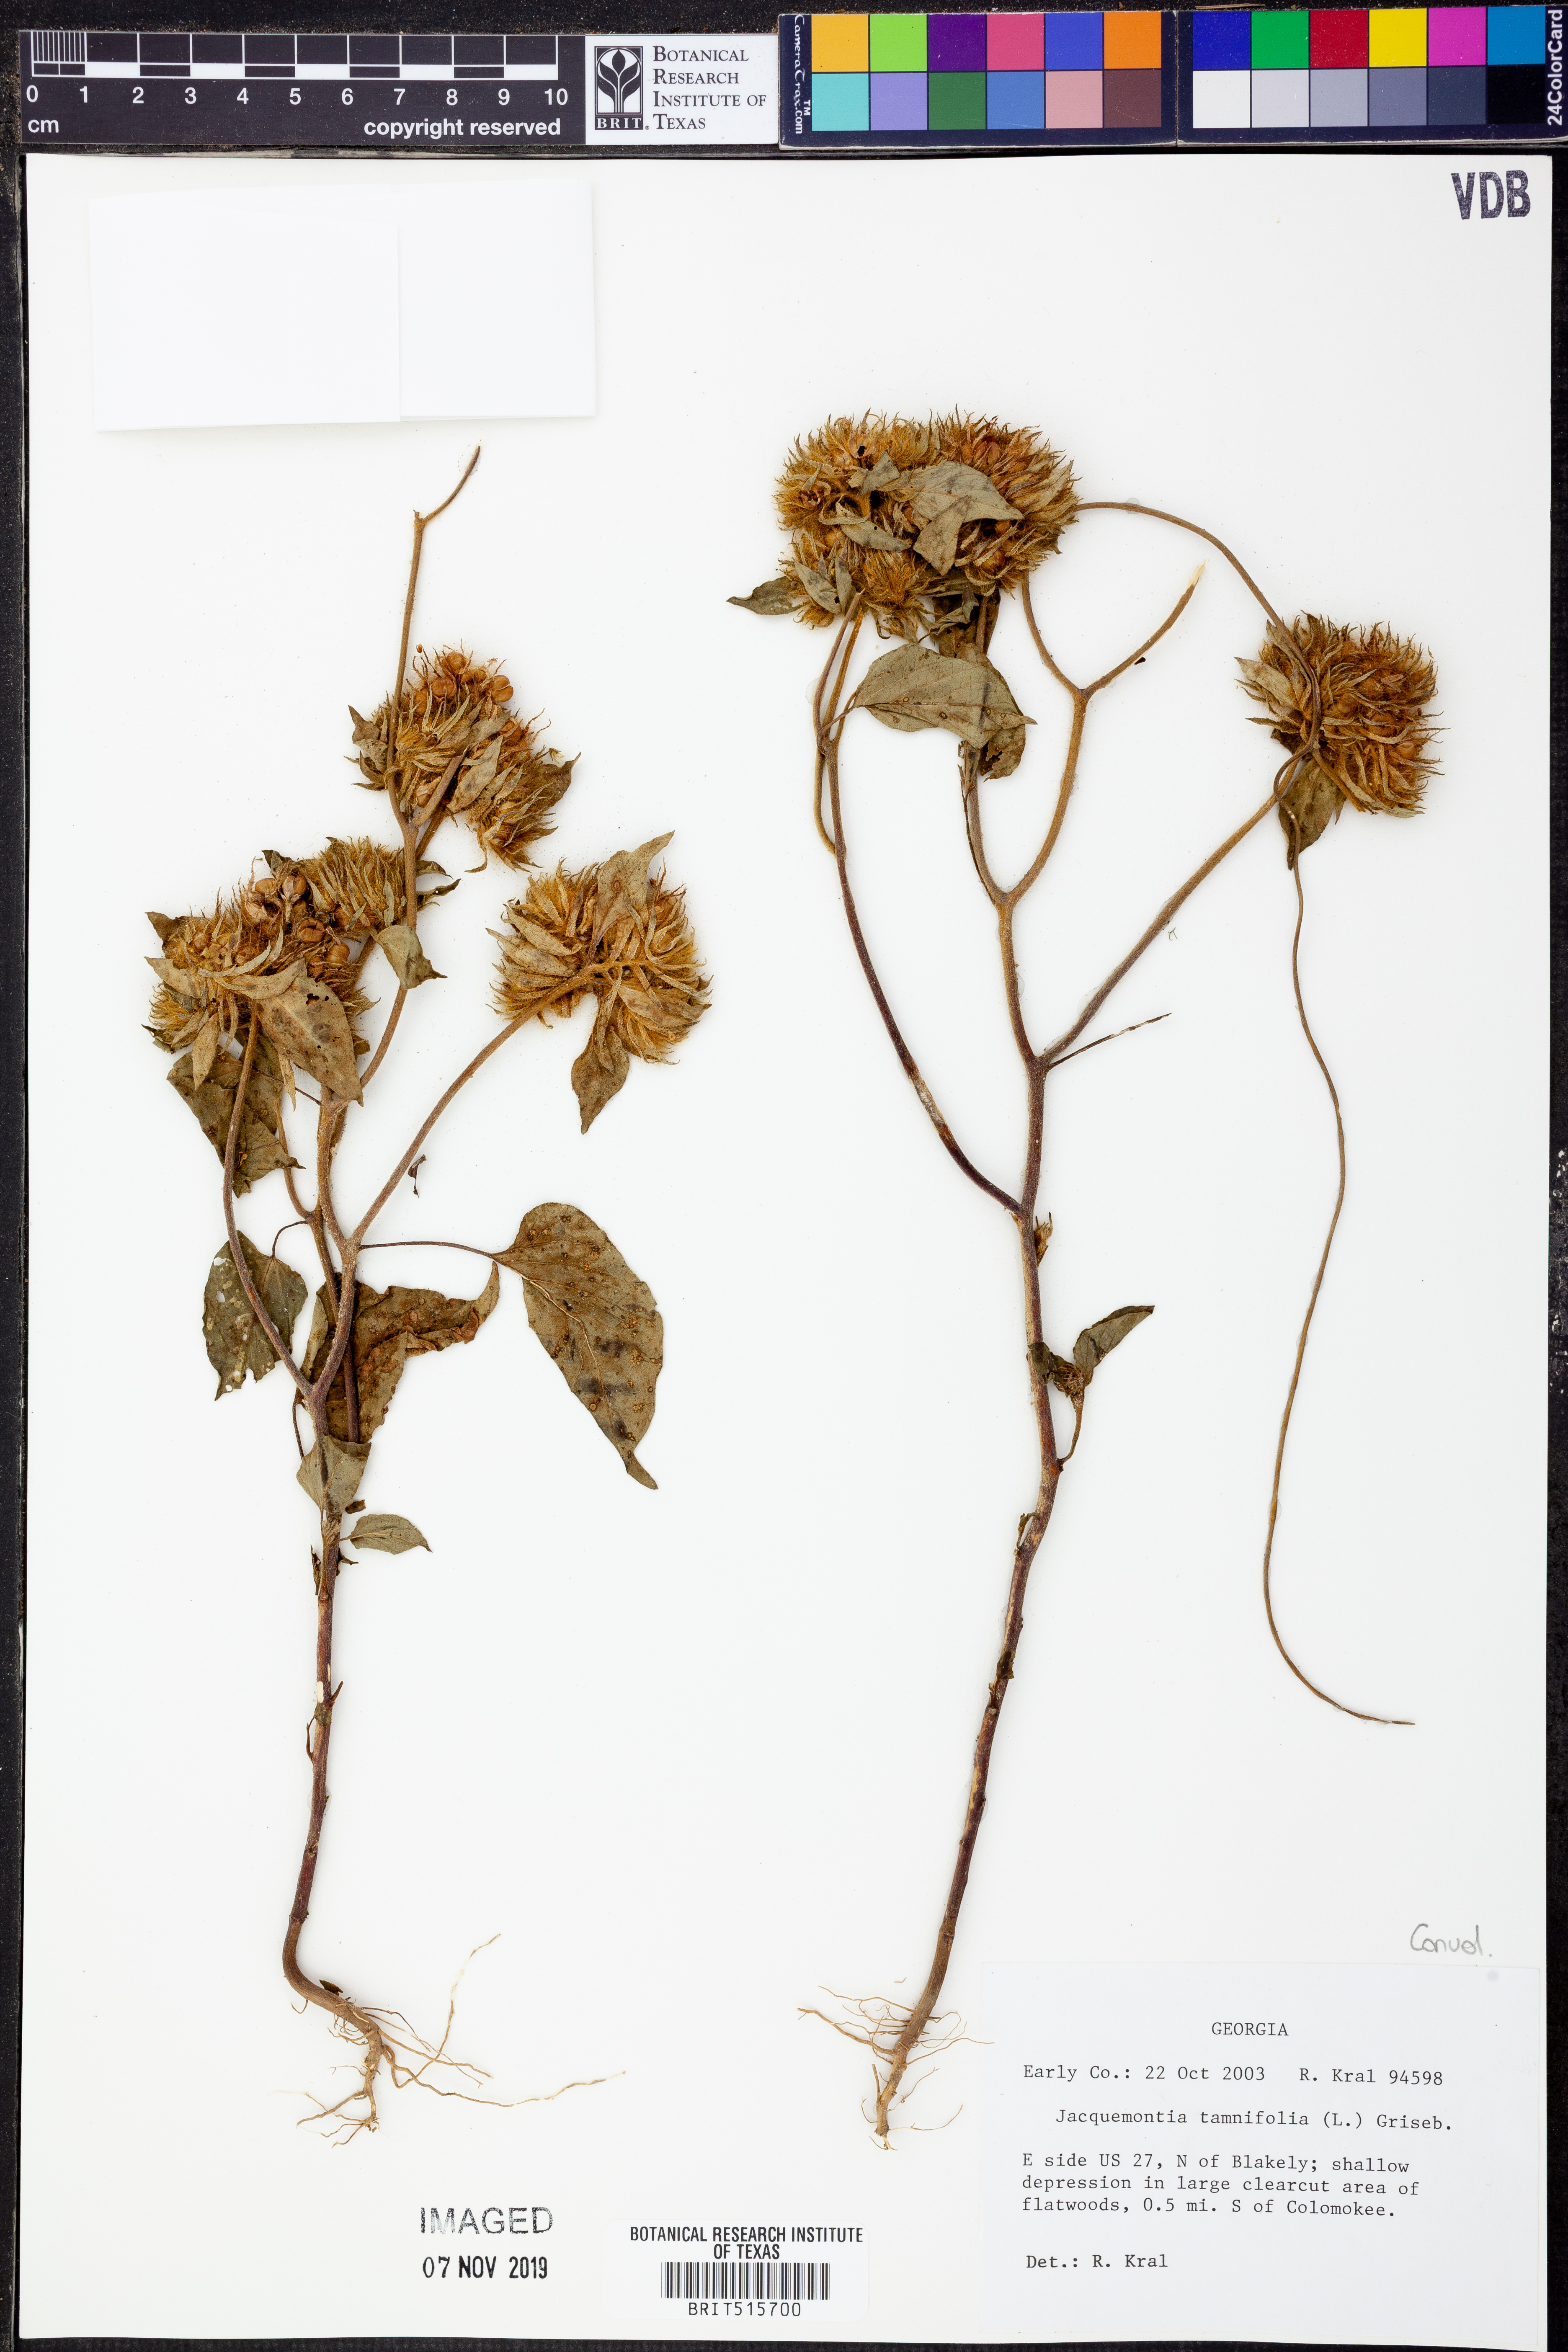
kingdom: Plantae
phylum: Tracheophyta
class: Magnoliopsida
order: Solanales
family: Convolvulaceae
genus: Jacquemontia
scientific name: Jacquemontia tamnifolia
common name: Hairy clustervine
